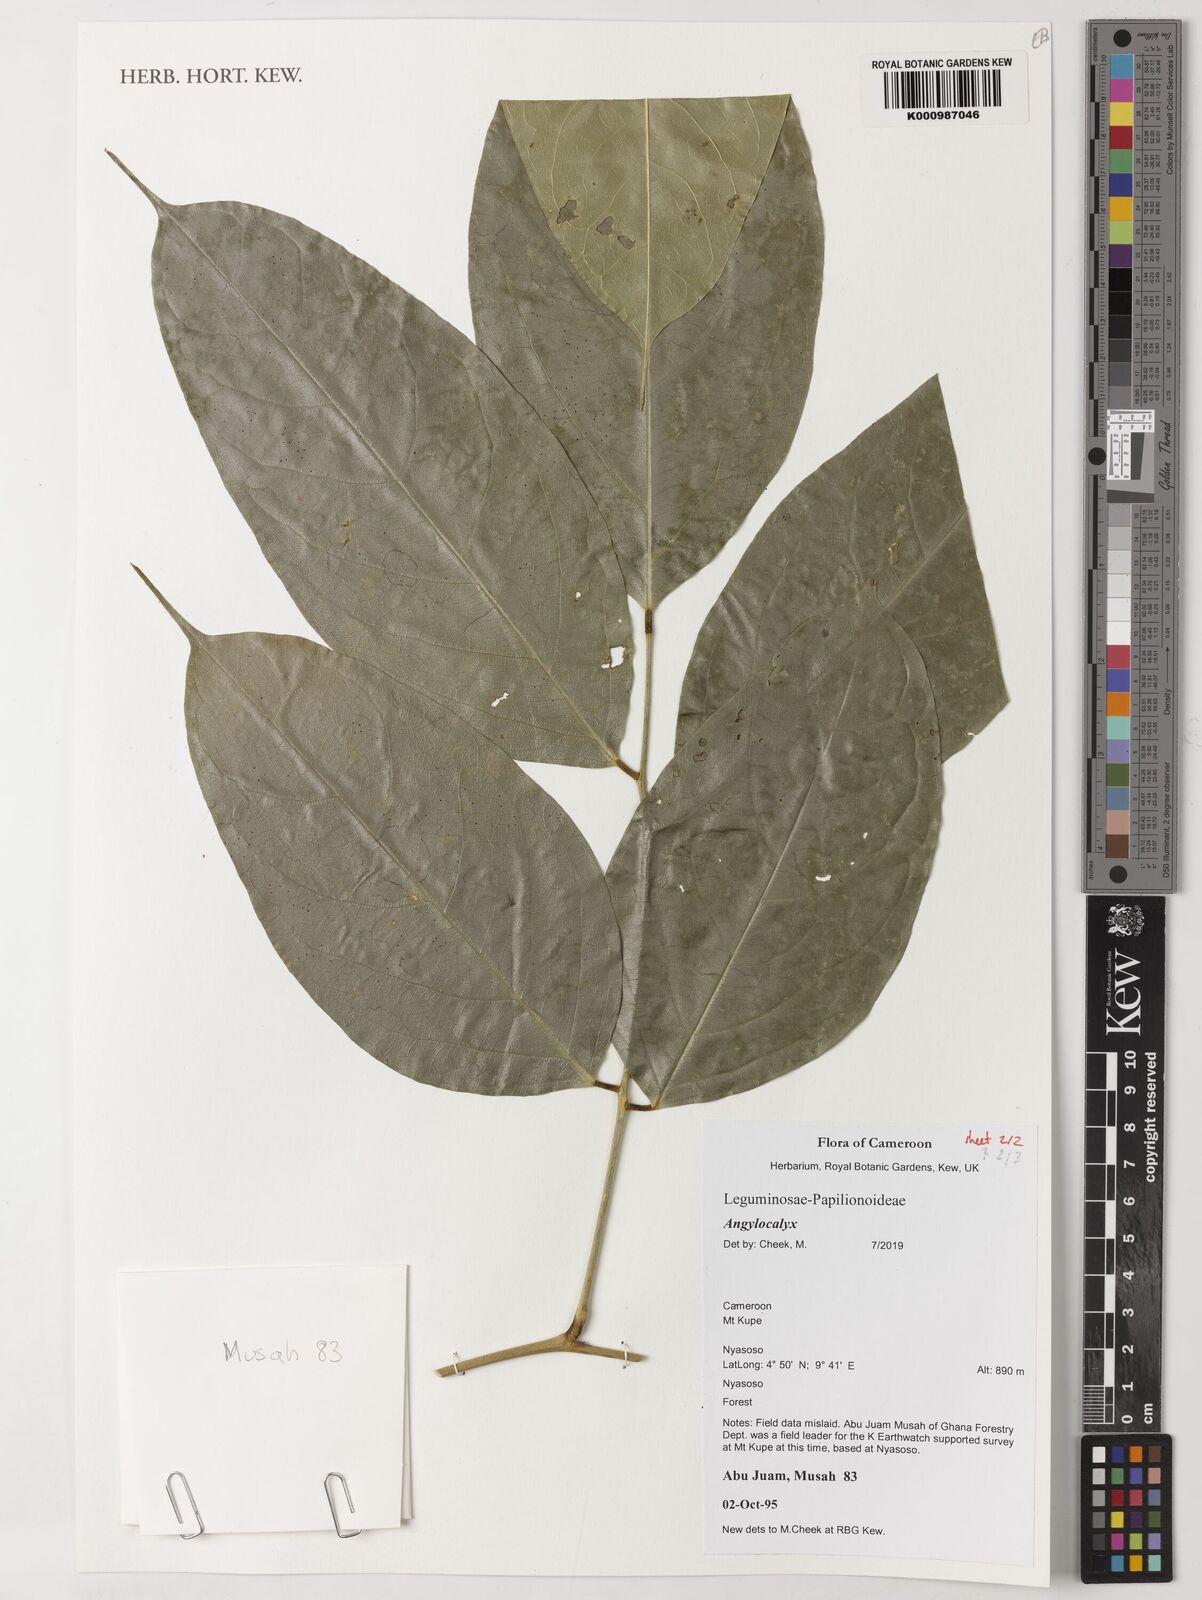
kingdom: Plantae
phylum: Tracheophyta
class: Magnoliopsida
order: Fabales
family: Fabaceae
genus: Angylocalyx
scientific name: Angylocalyx
